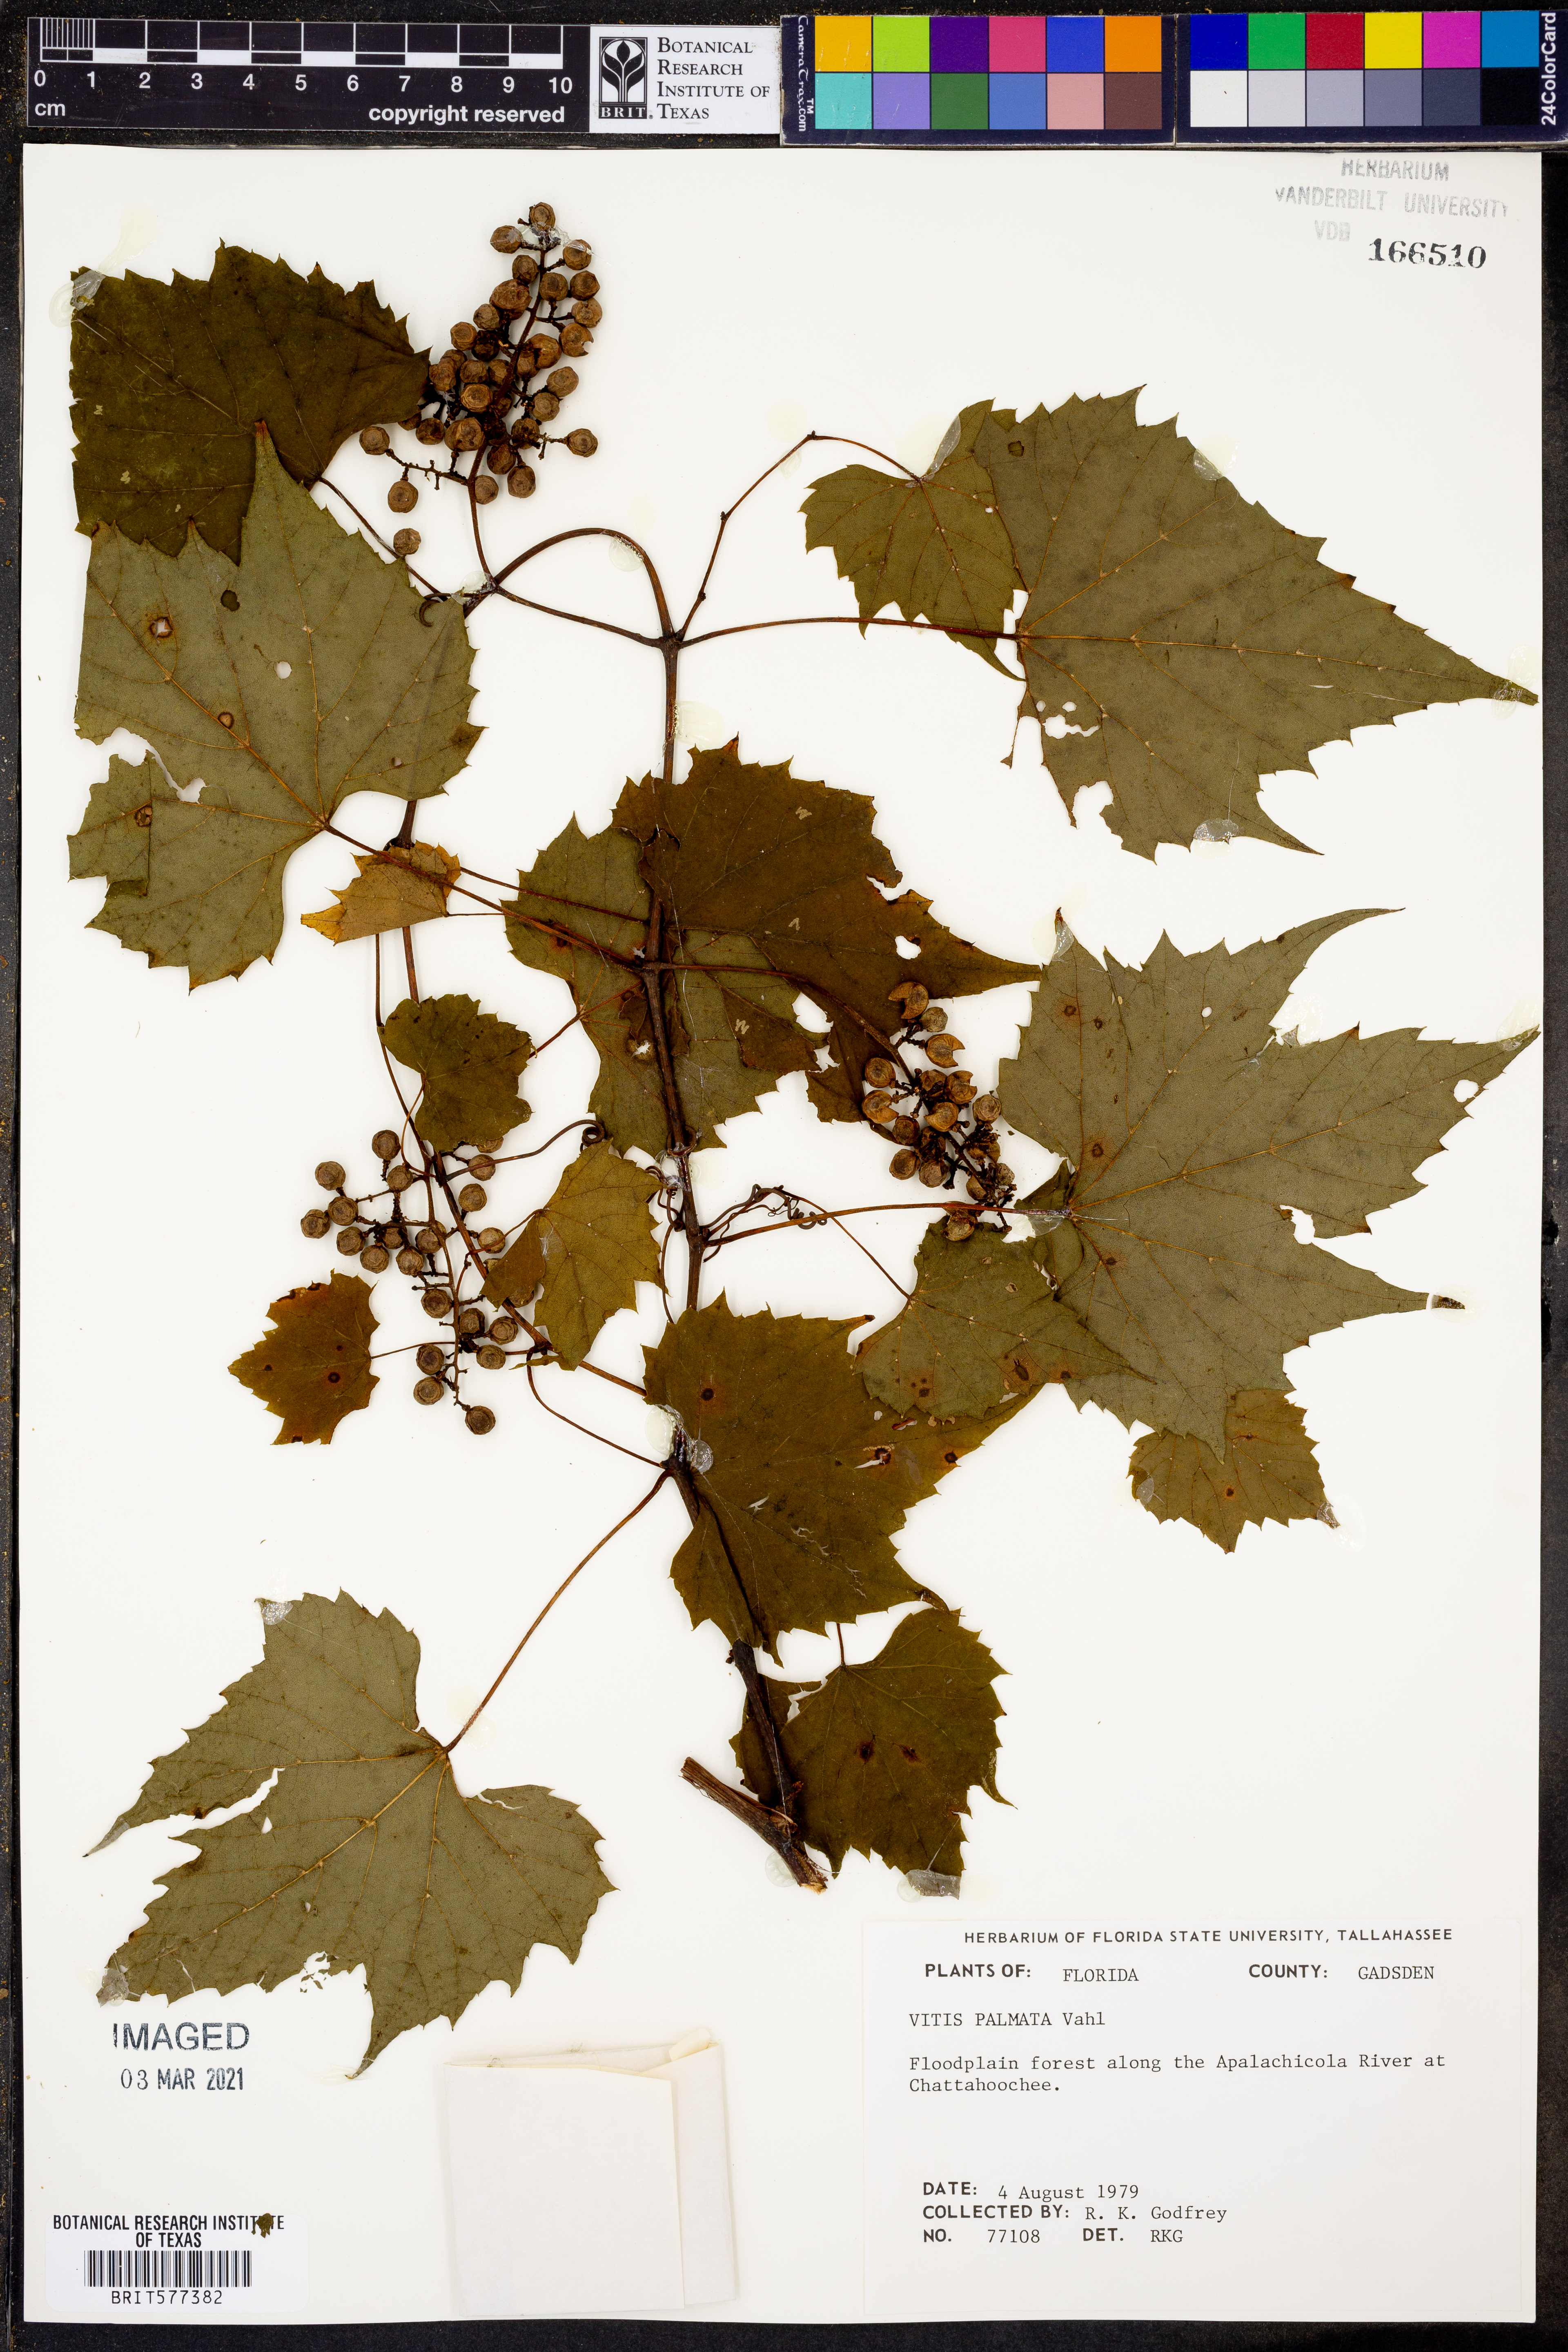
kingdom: Plantae
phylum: Tracheophyta
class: Magnoliopsida
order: Vitales
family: Vitaceae
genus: Vitis
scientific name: Vitis palmata
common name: Catbird grape
